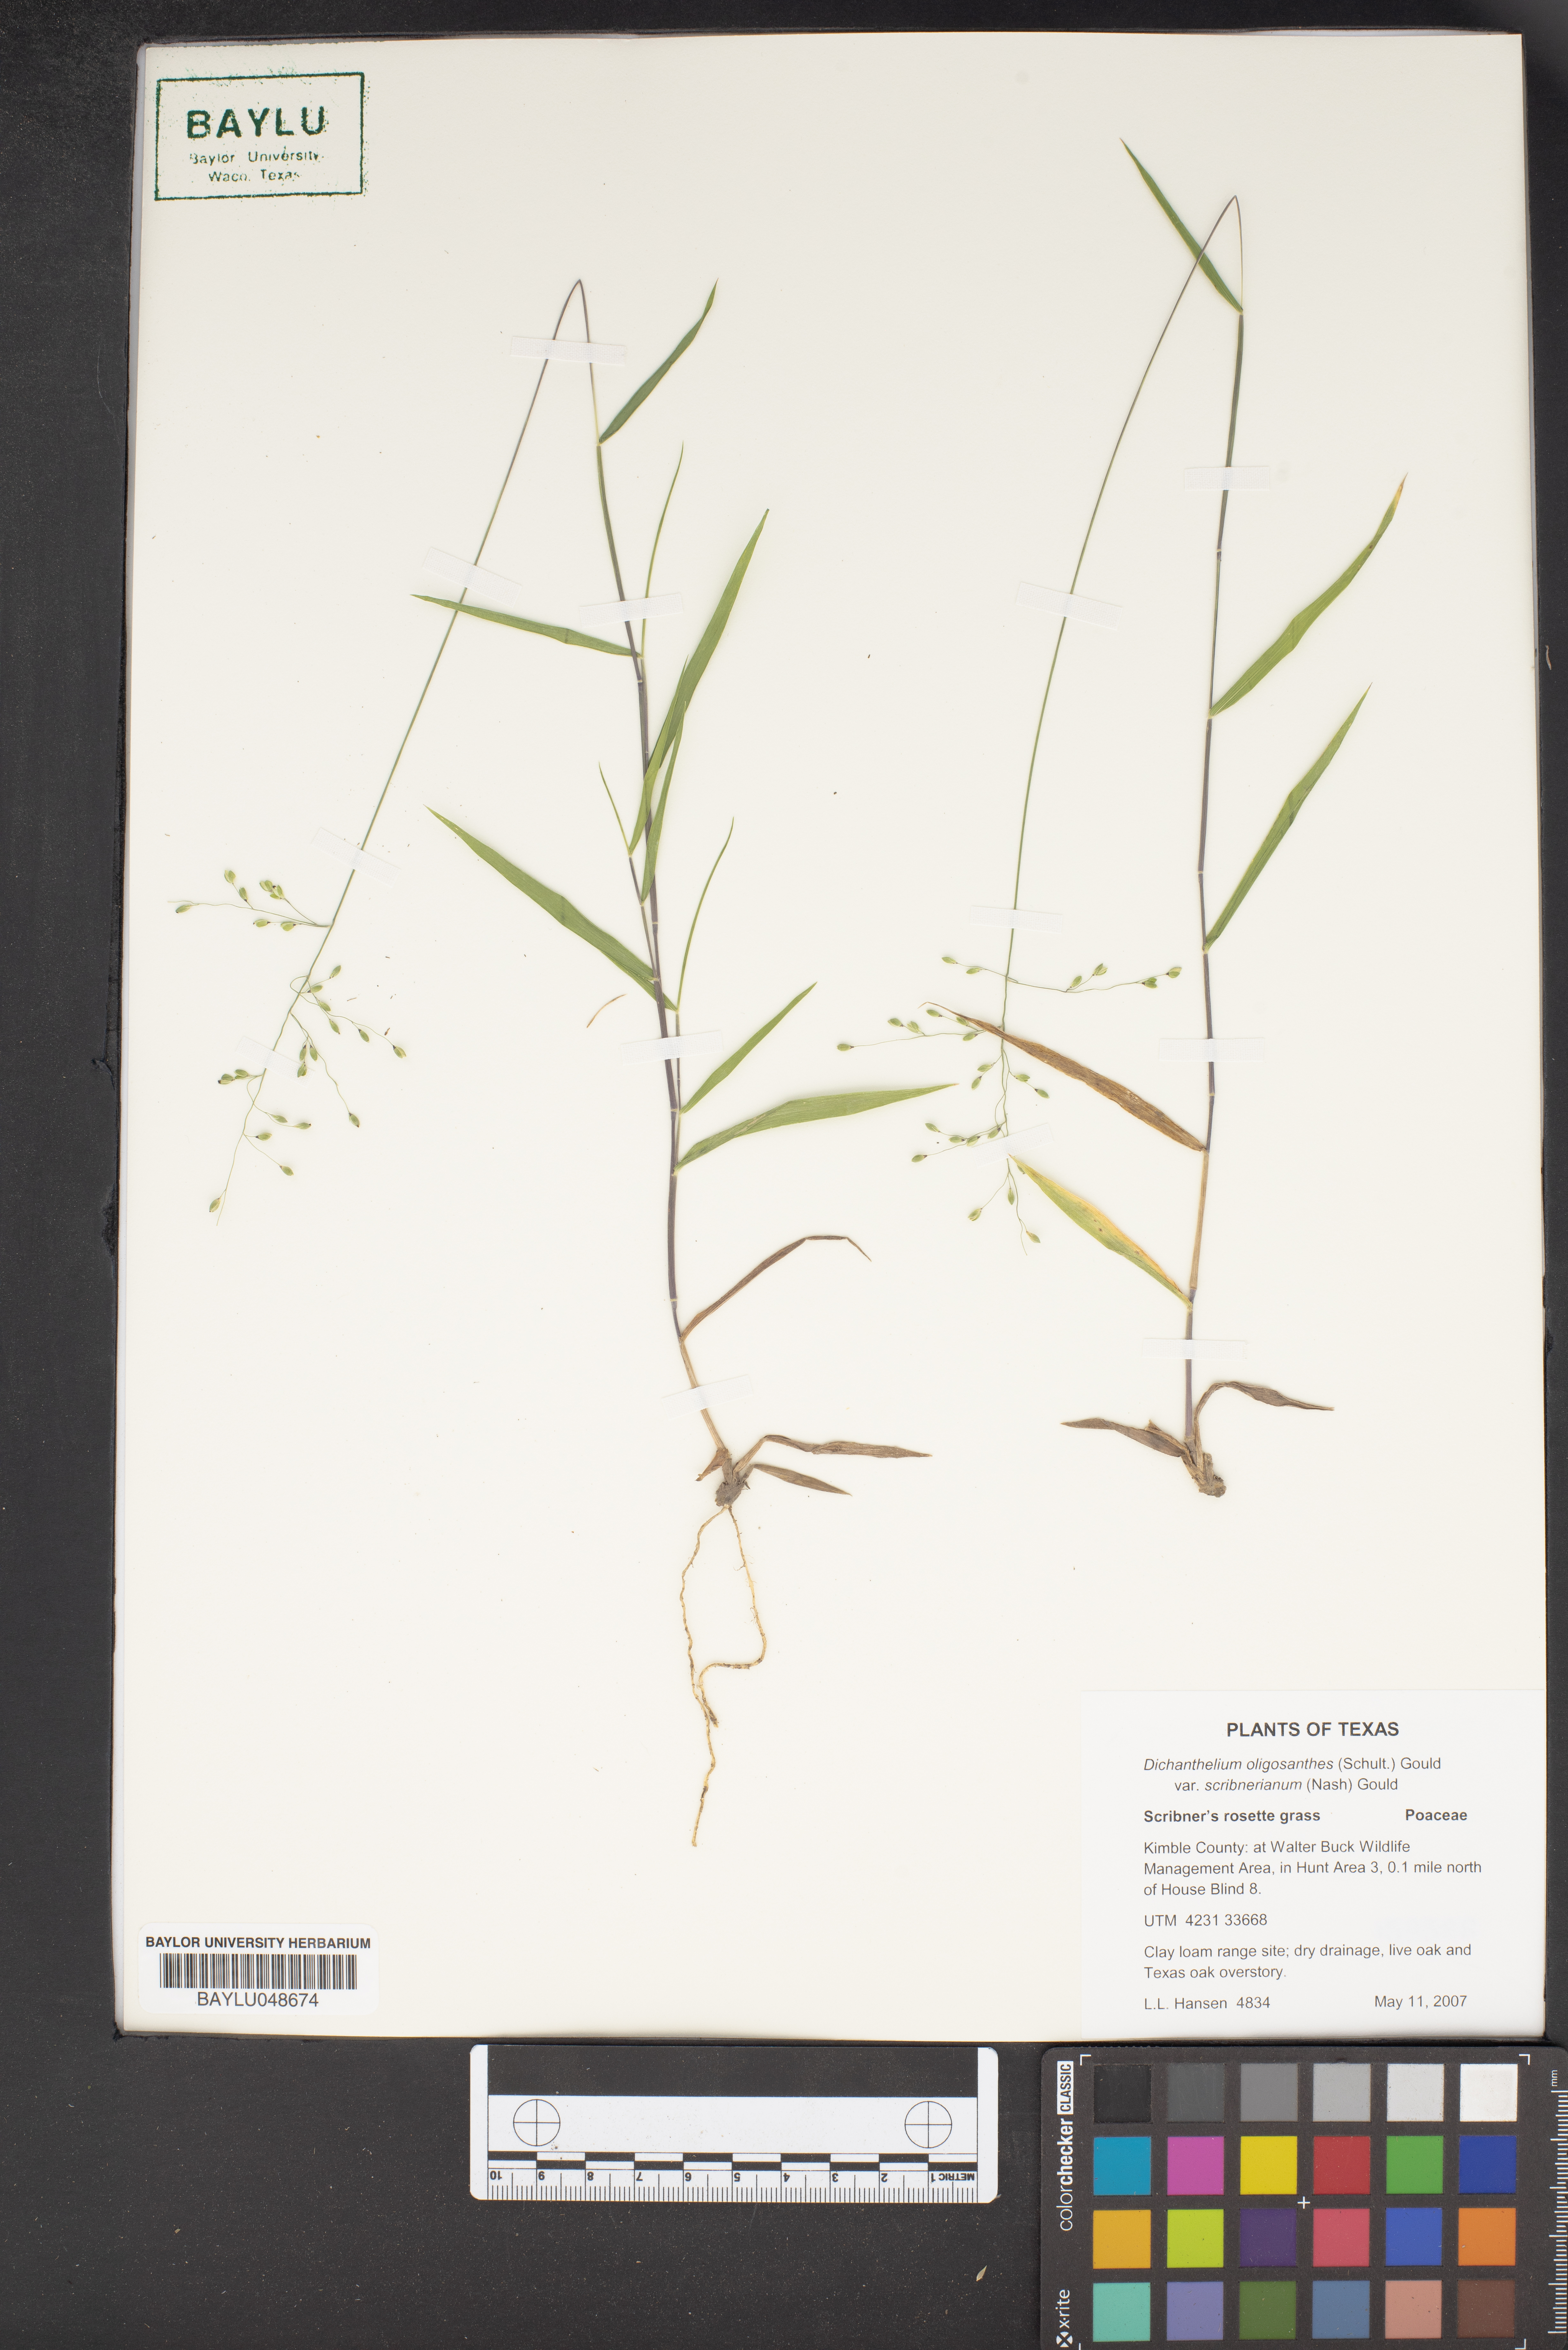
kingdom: Plantae
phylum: Tracheophyta
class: Liliopsida
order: Poales
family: Poaceae
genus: Dichanthelium
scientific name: Dichanthelium scribnerianum
